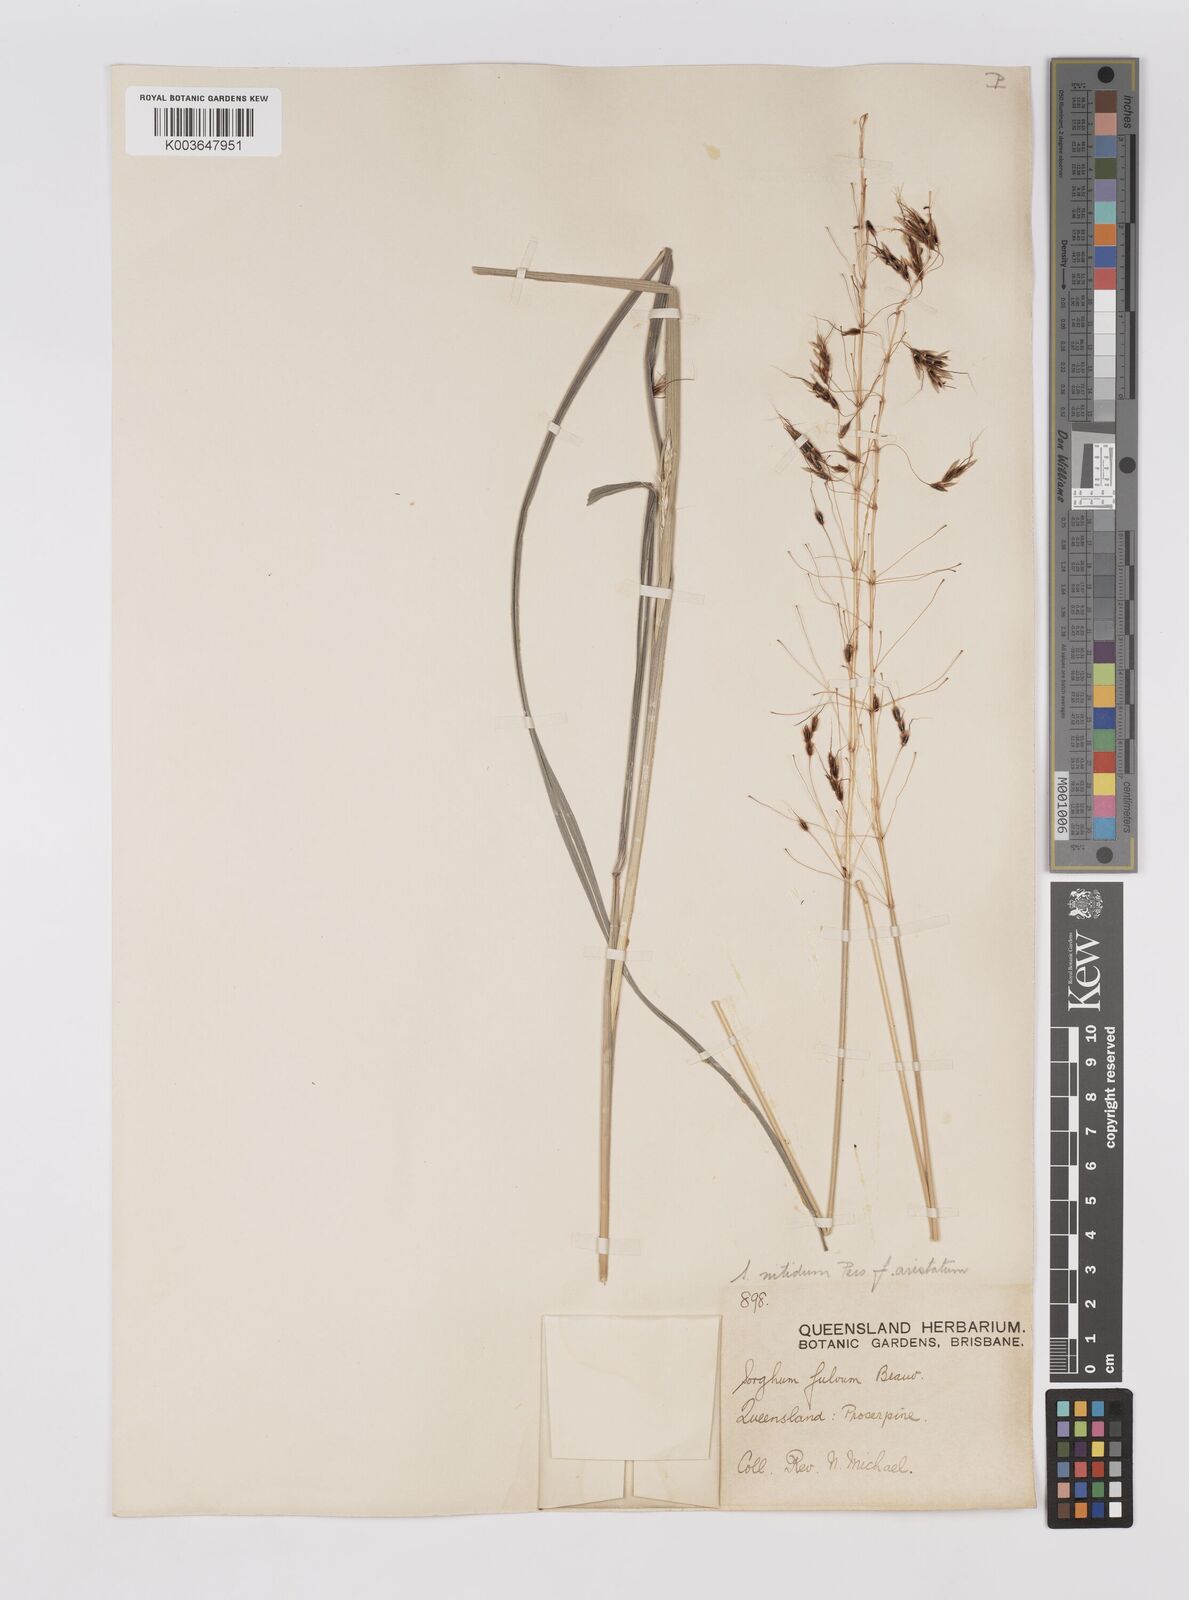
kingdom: Plantae
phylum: Tracheophyta
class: Liliopsida
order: Poales
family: Poaceae
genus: Sorghum
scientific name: Sorghum nitidum
